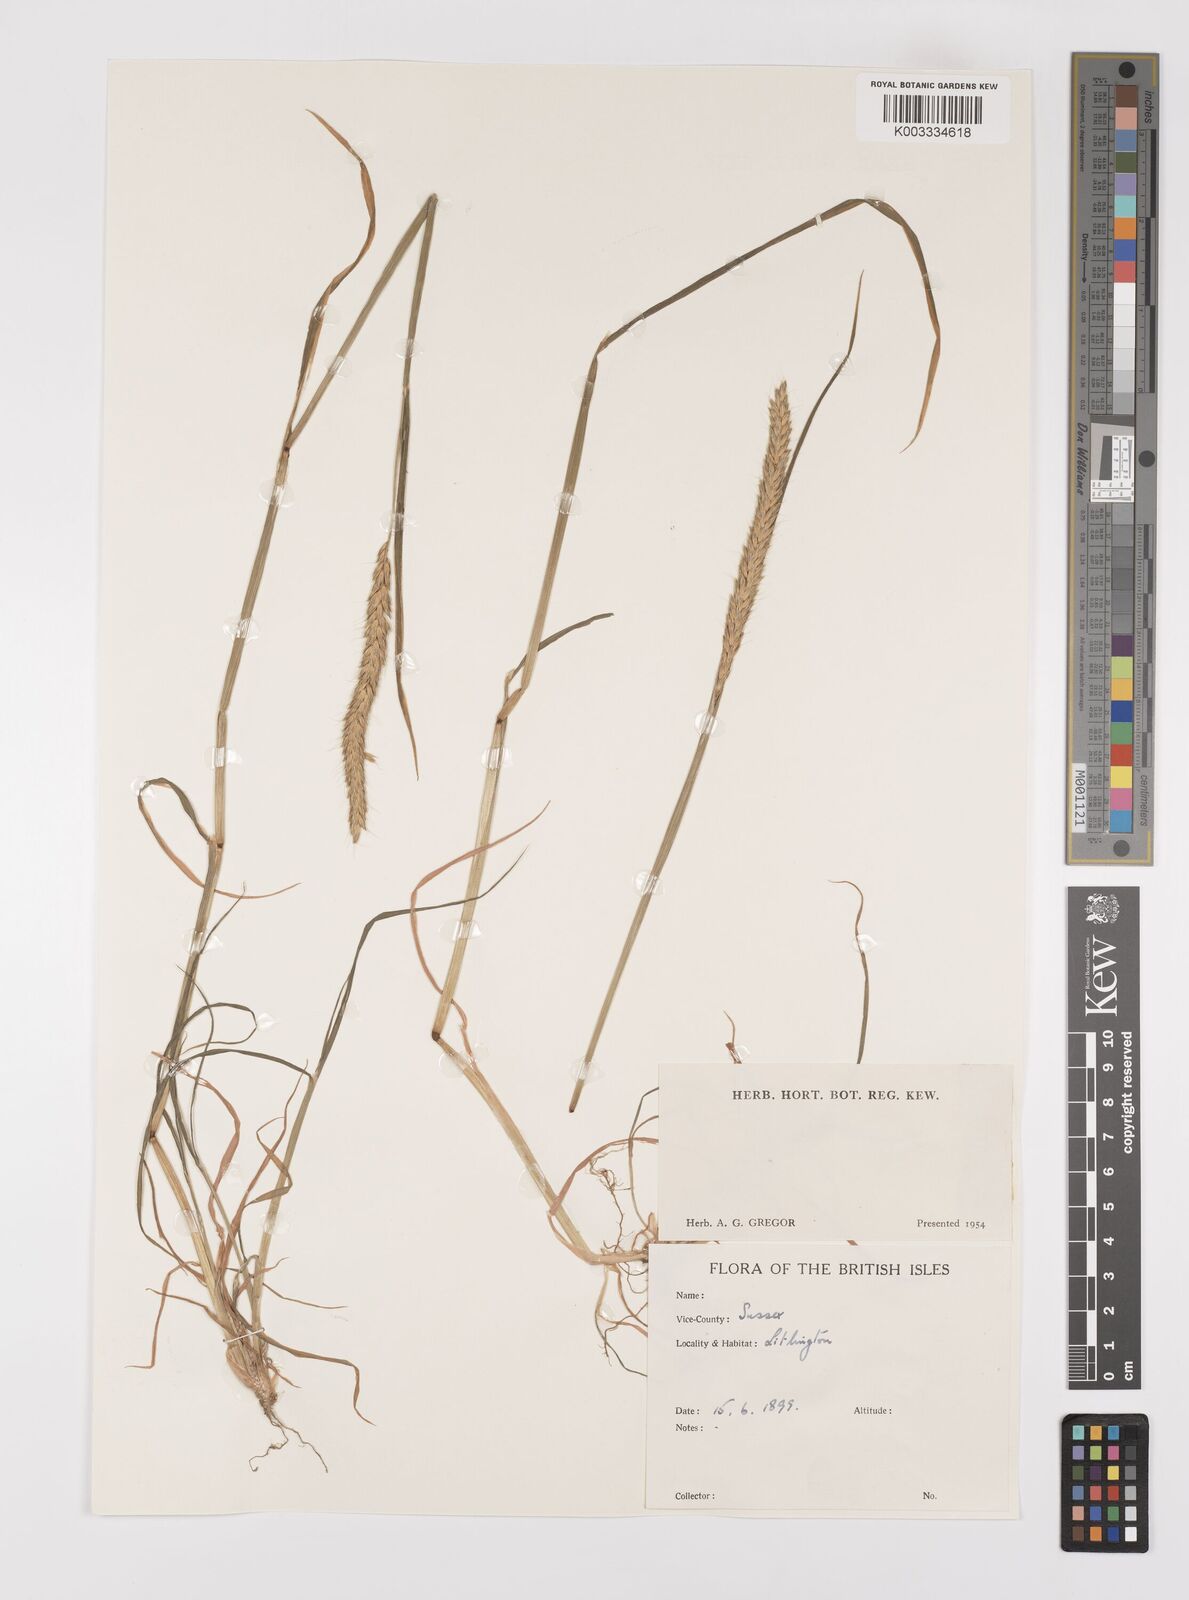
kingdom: Plantae
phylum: Tracheophyta
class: Liliopsida
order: Poales
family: Poaceae
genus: Alopecurus
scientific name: Alopecurus myosuroides
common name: Black-grass
